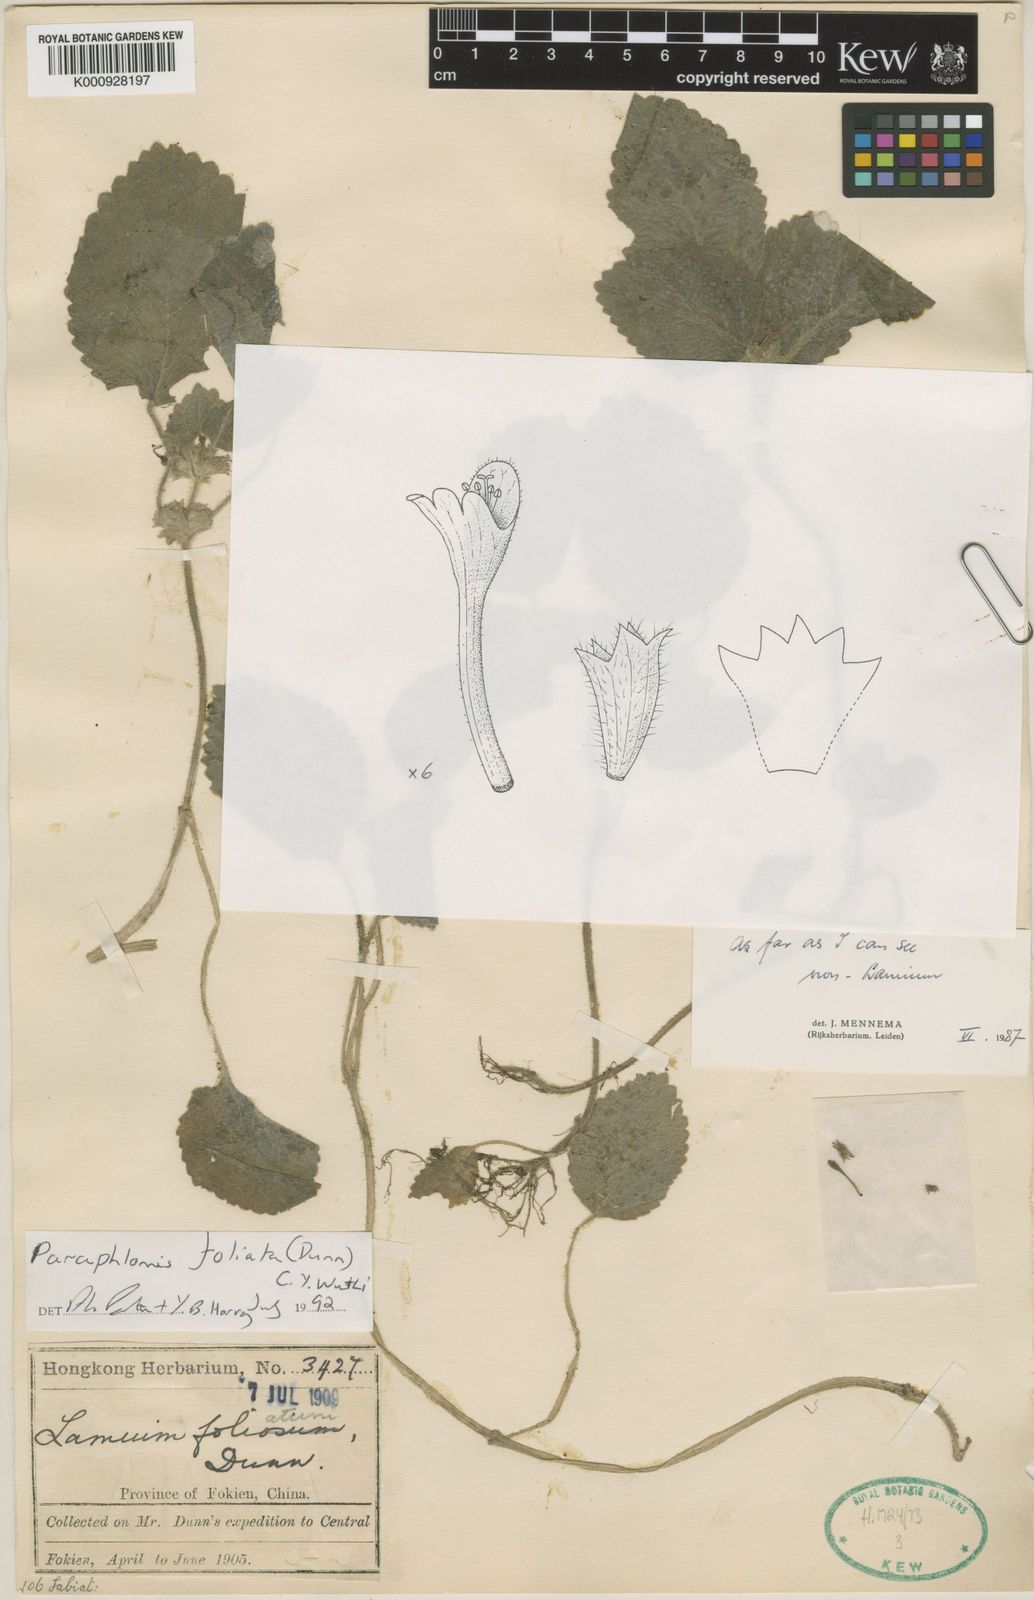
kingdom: Plantae
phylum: Tracheophyta
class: Magnoliopsida
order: Lamiales
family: Lamiaceae
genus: Paraphlomis
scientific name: Paraphlomis foliata
